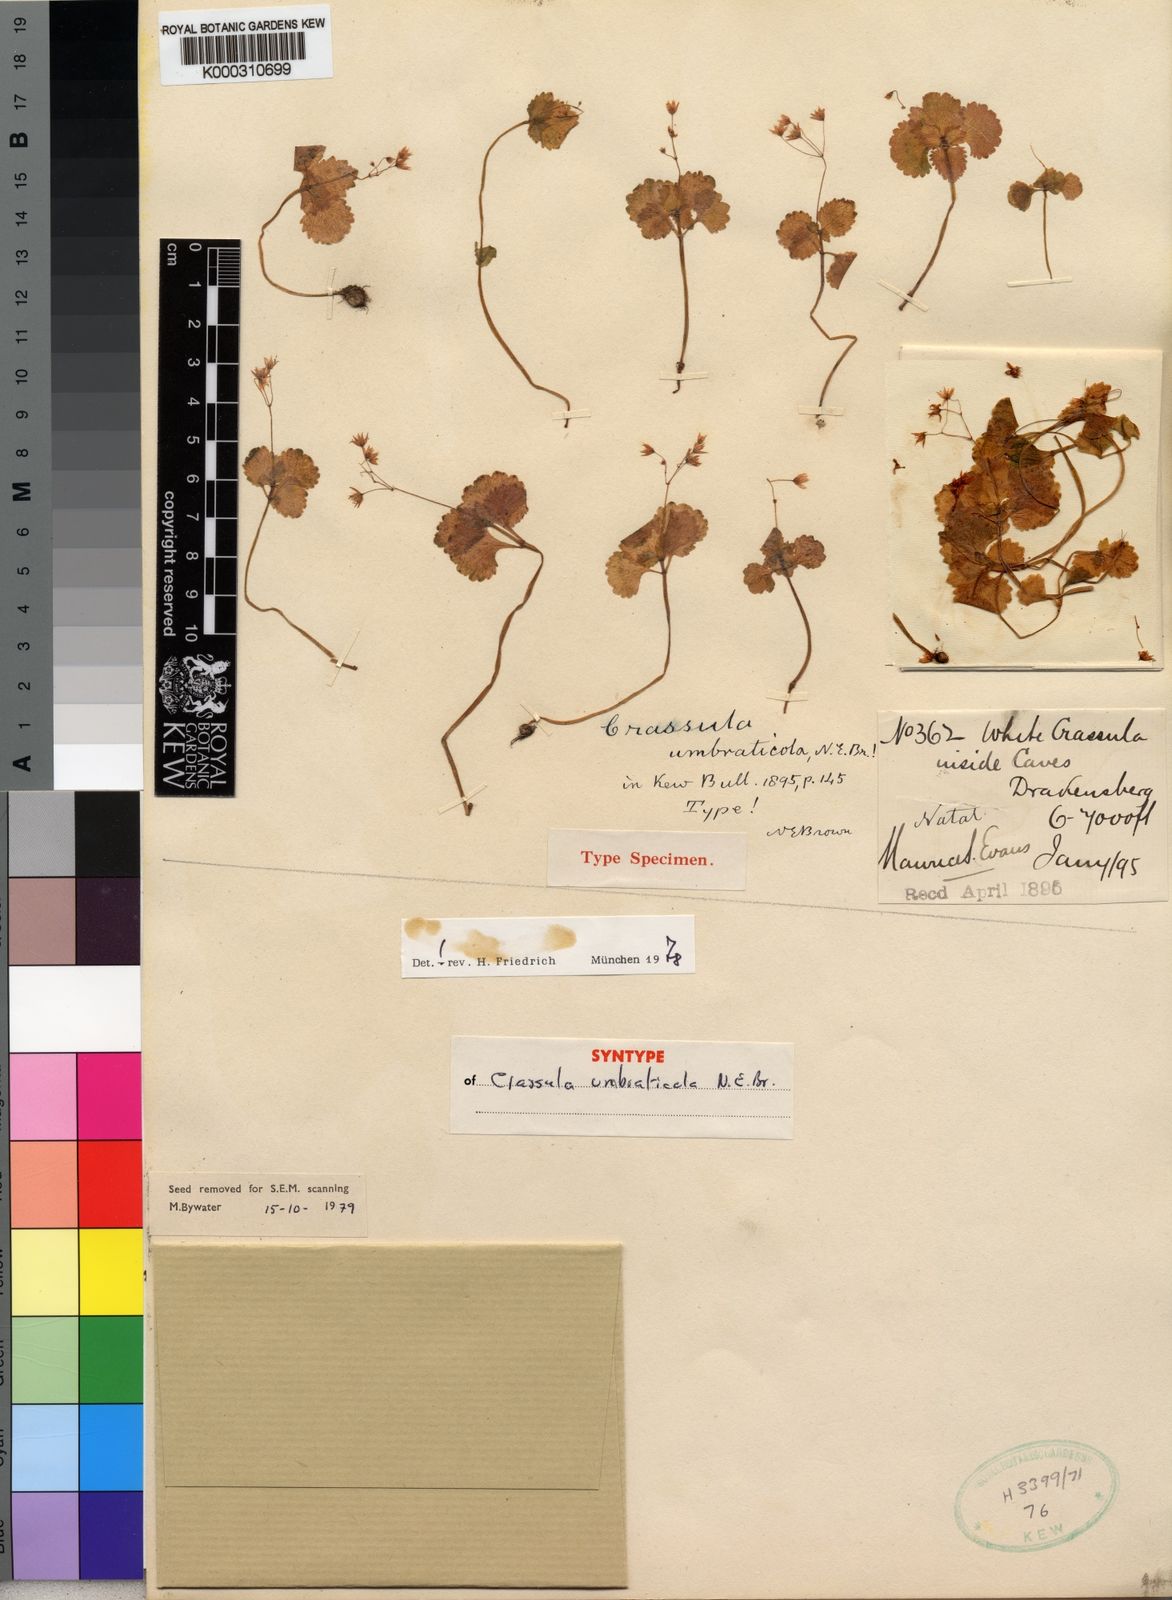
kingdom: Plantae
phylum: Tracheophyta
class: Magnoliopsida
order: Saxifragales
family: Crassulaceae
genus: Crassula
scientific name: Crassula umbraticola
